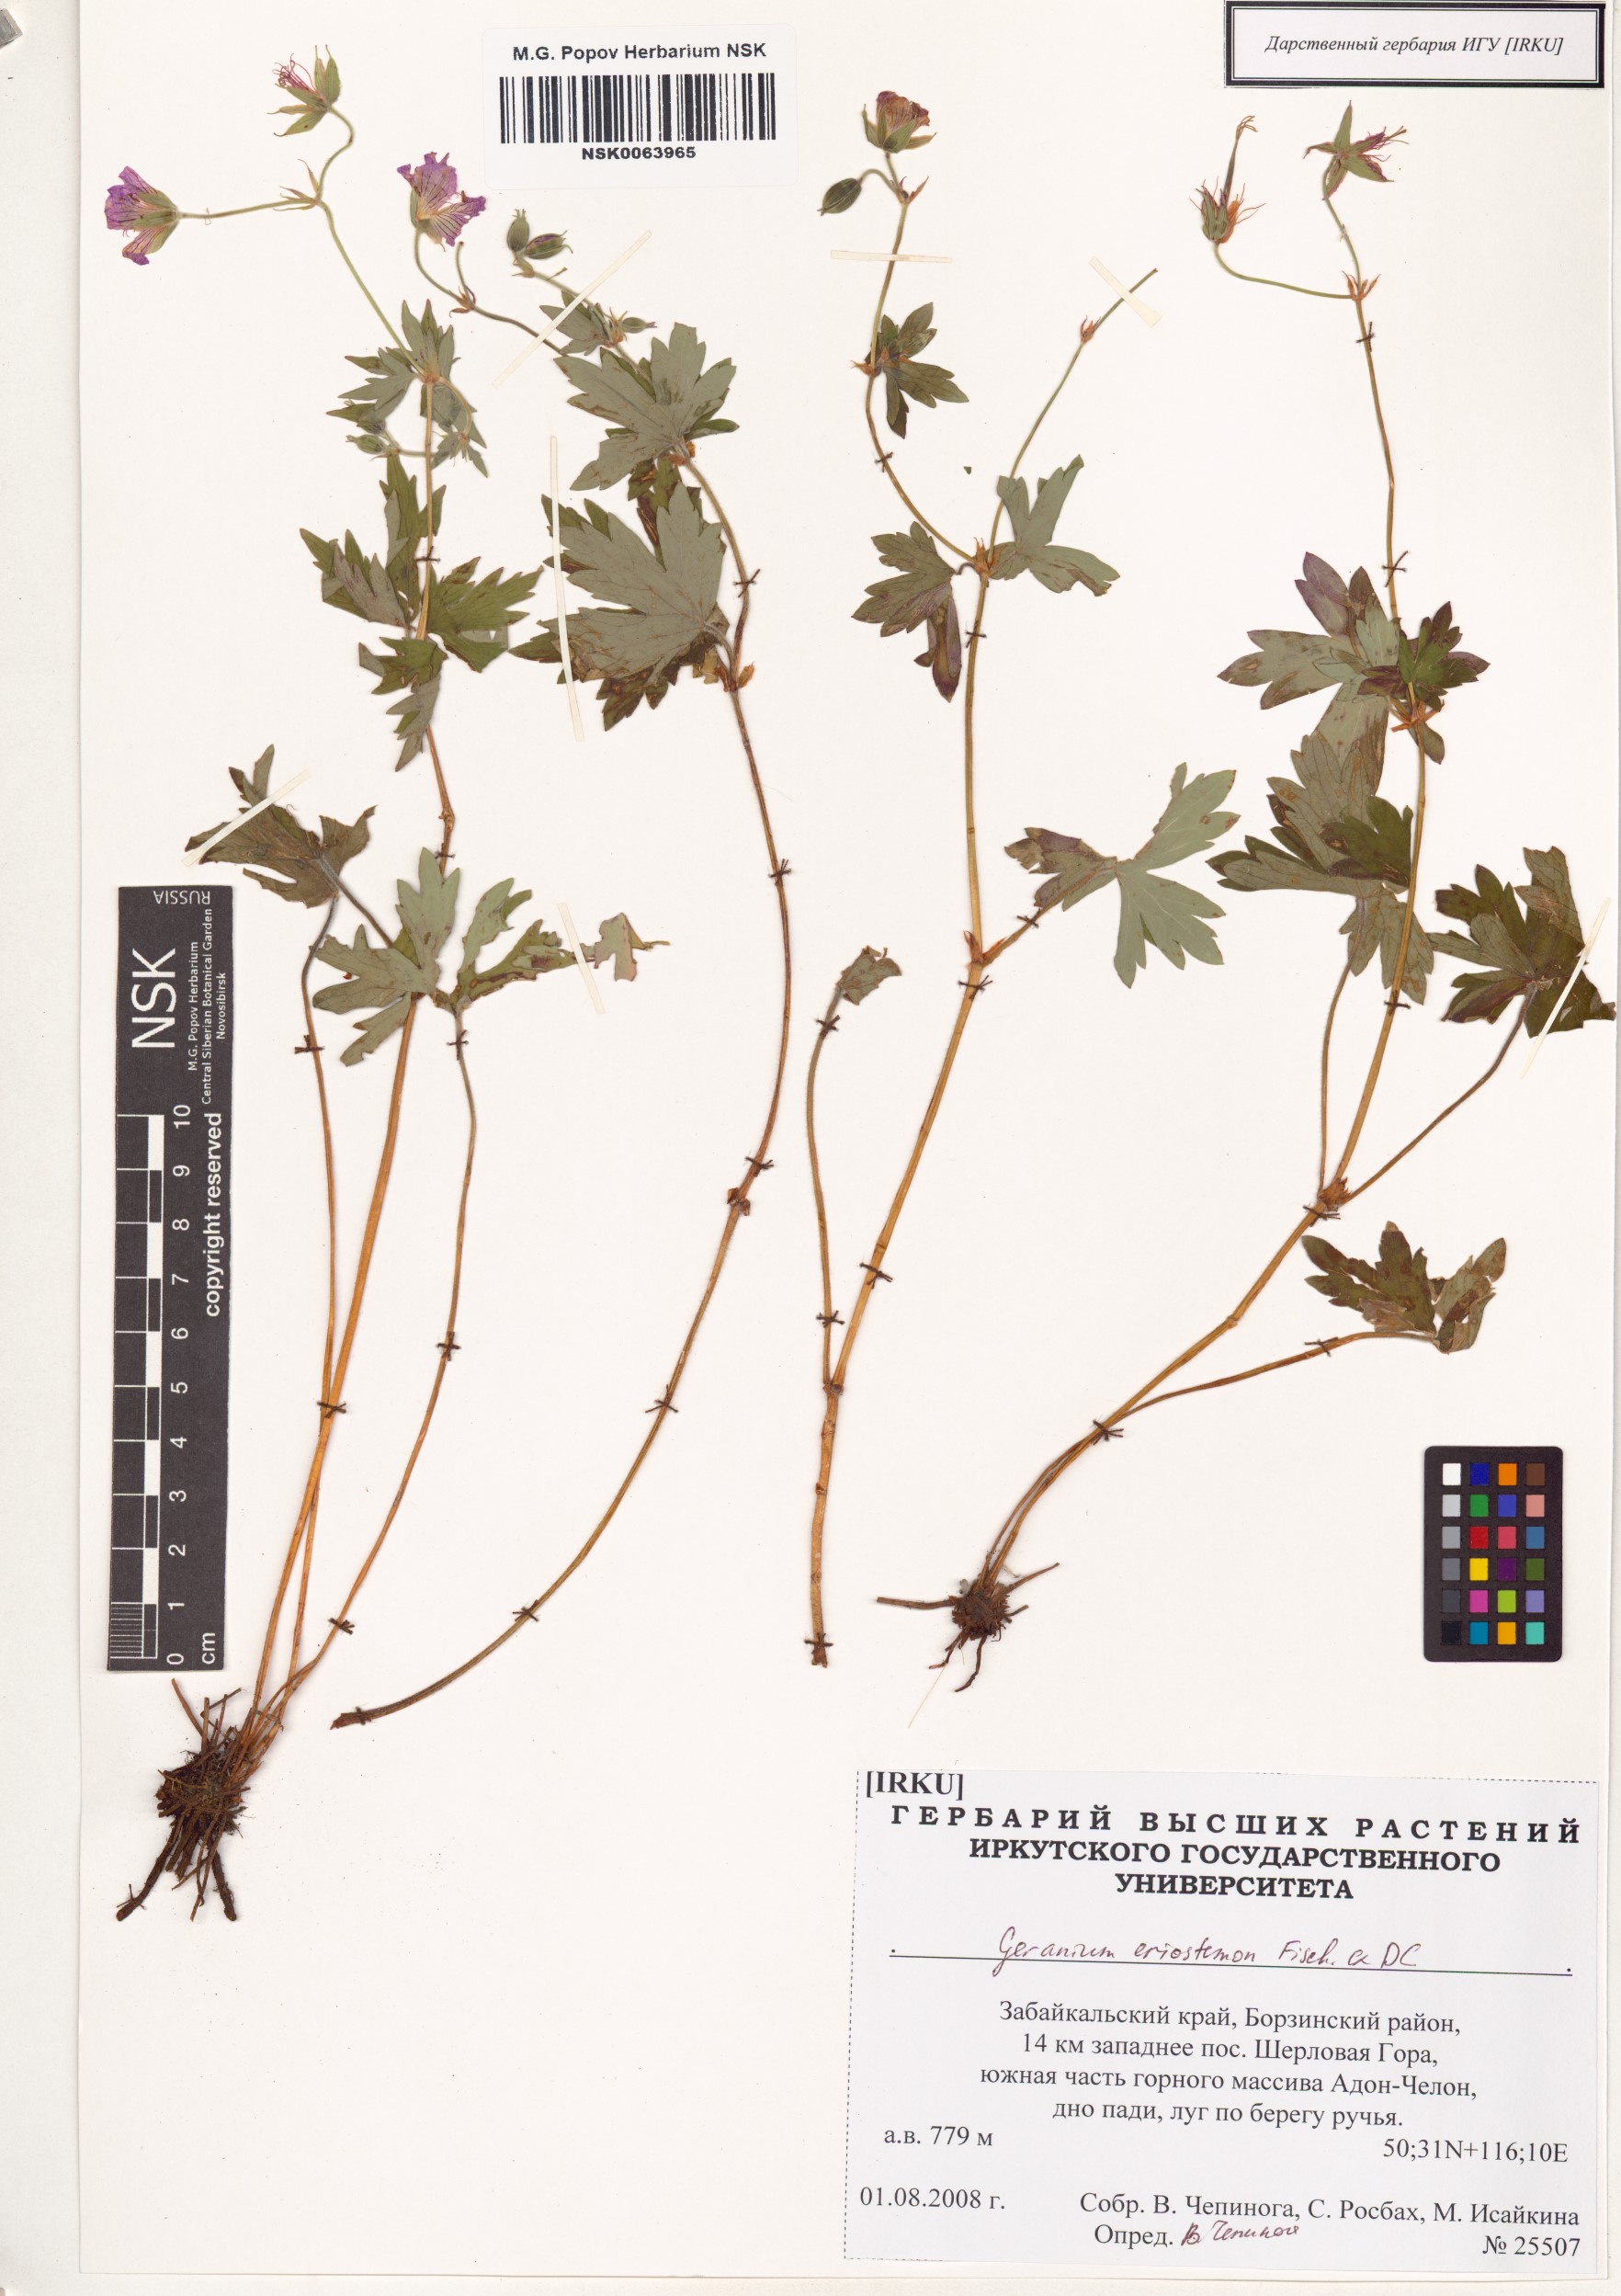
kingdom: Plantae
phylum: Tracheophyta
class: Magnoliopsida
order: Geraniales
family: Geraniaceae
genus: Geranium
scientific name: Geranium platyanthum
